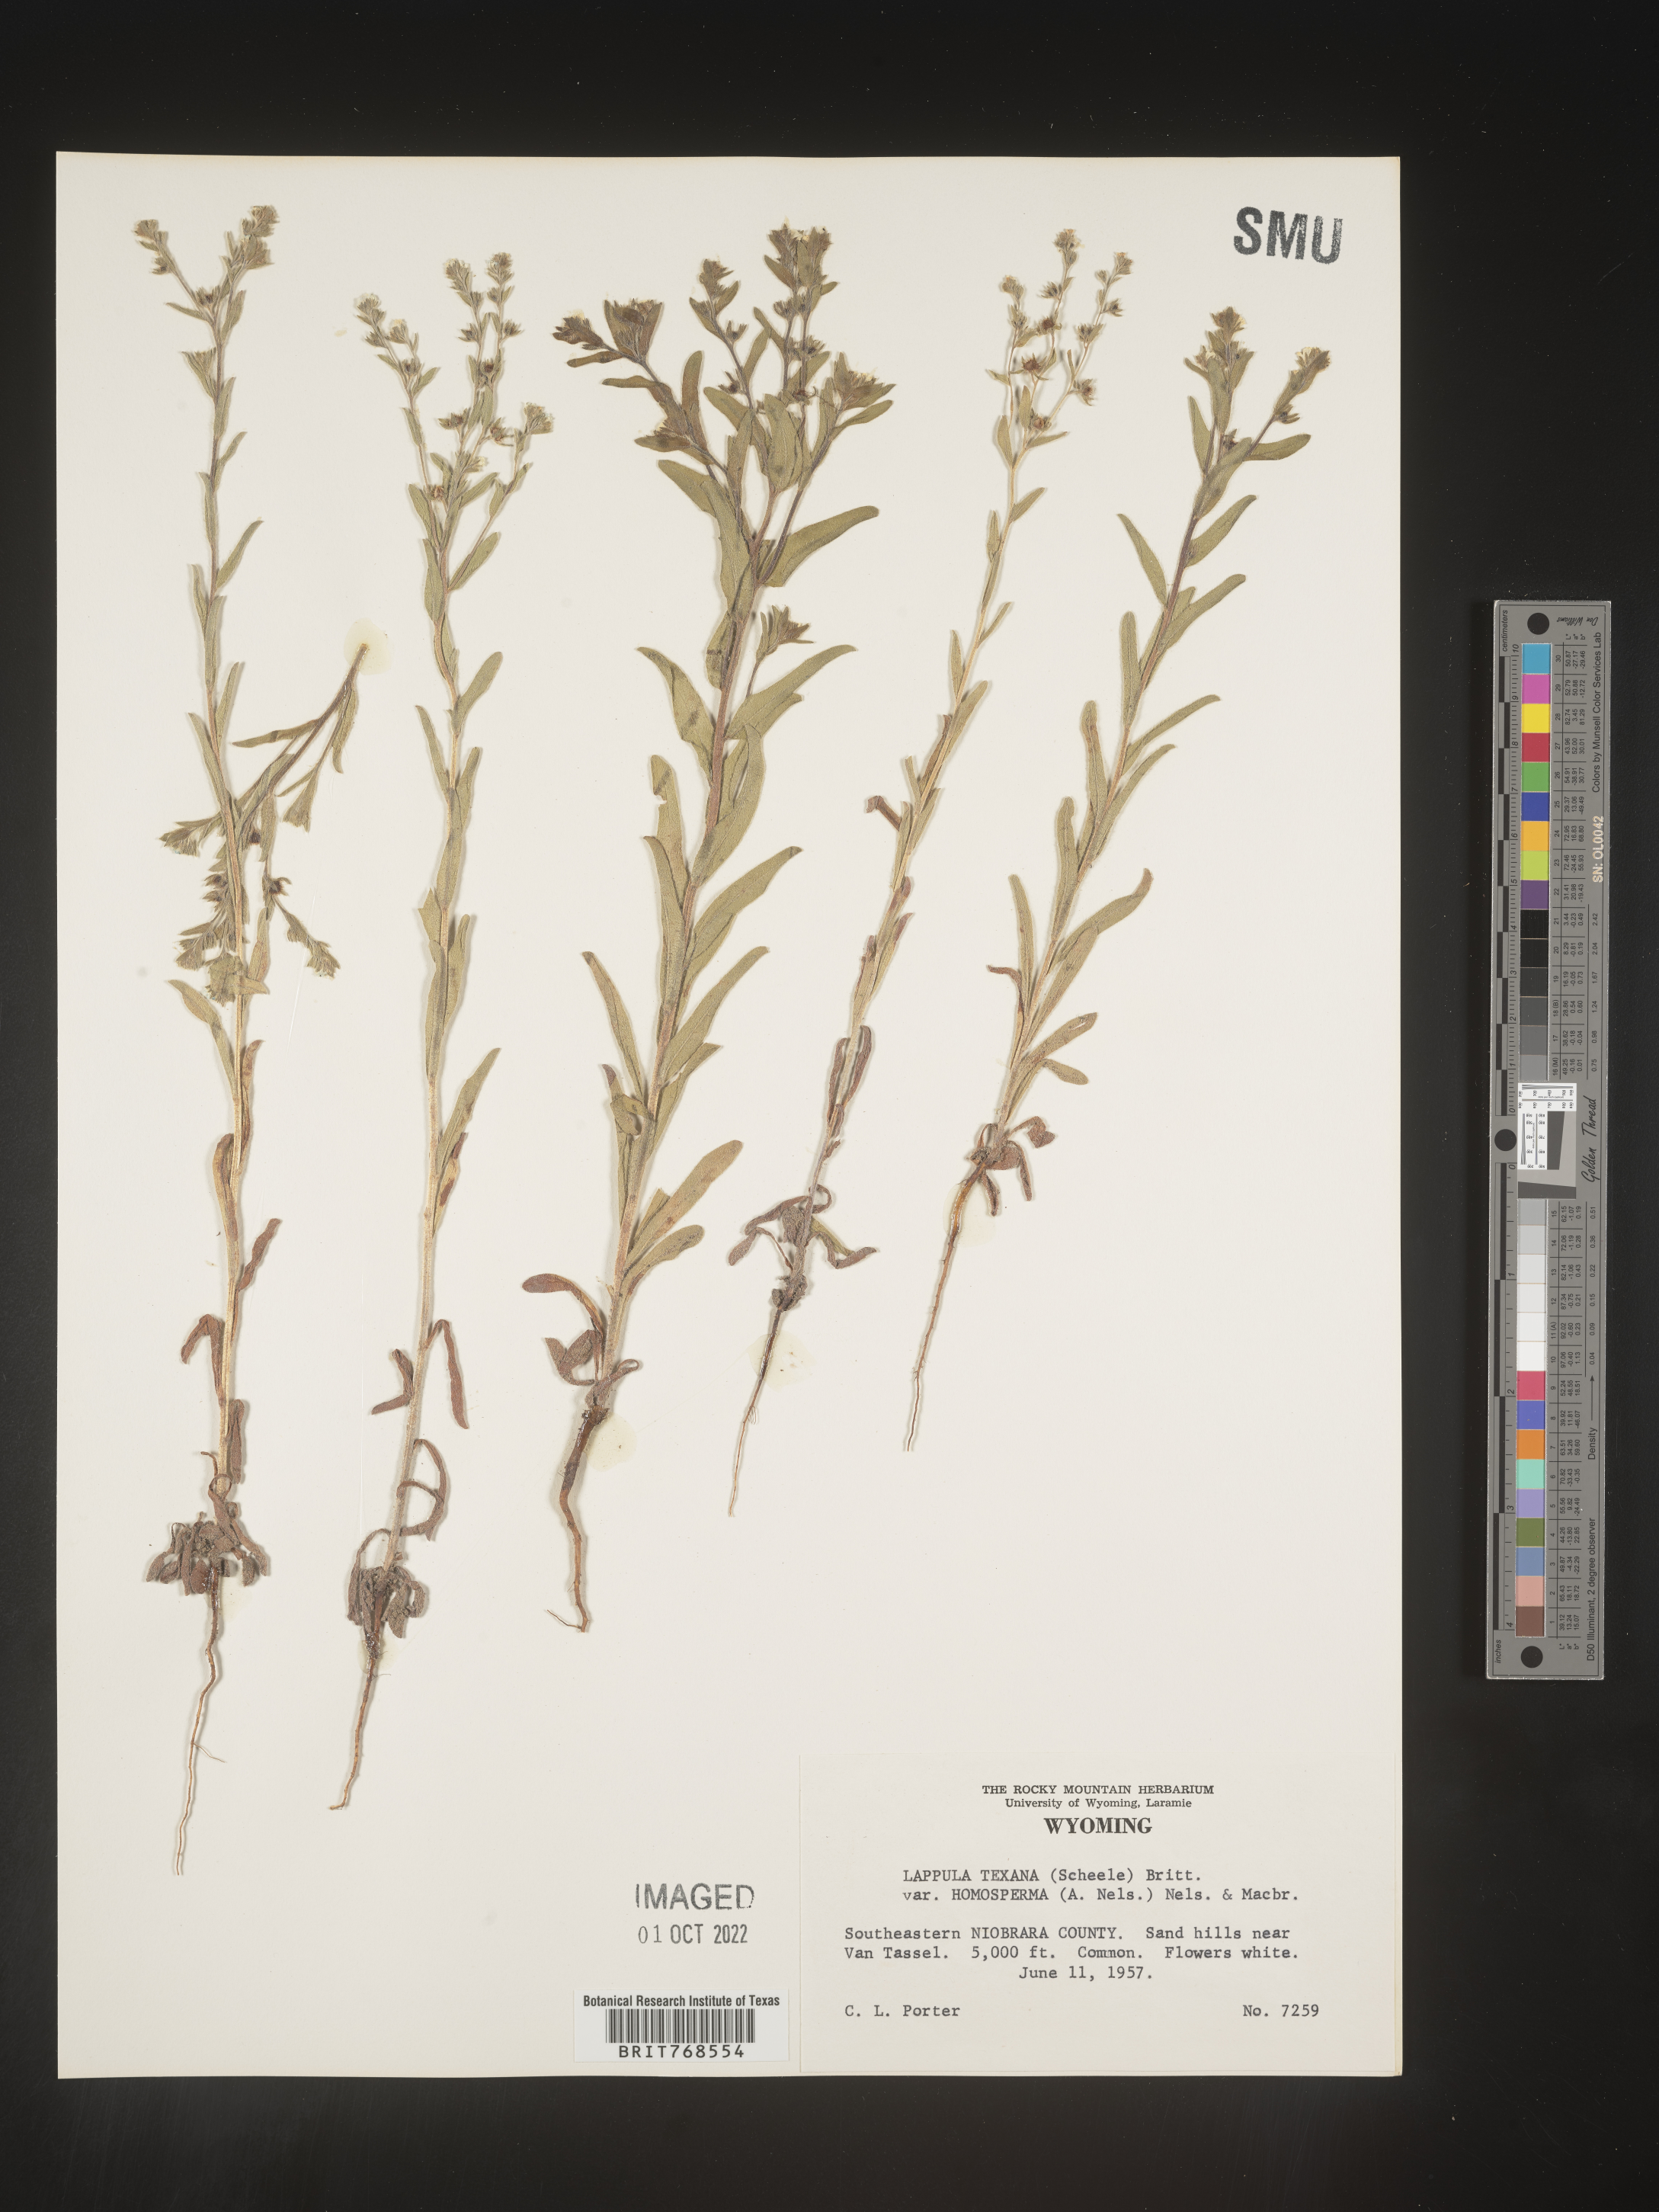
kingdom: Plantae
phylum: Tracheophyta
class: Magnoliopsida
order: Boraginales
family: Boraginaceae
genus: Lappula
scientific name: Lappula
